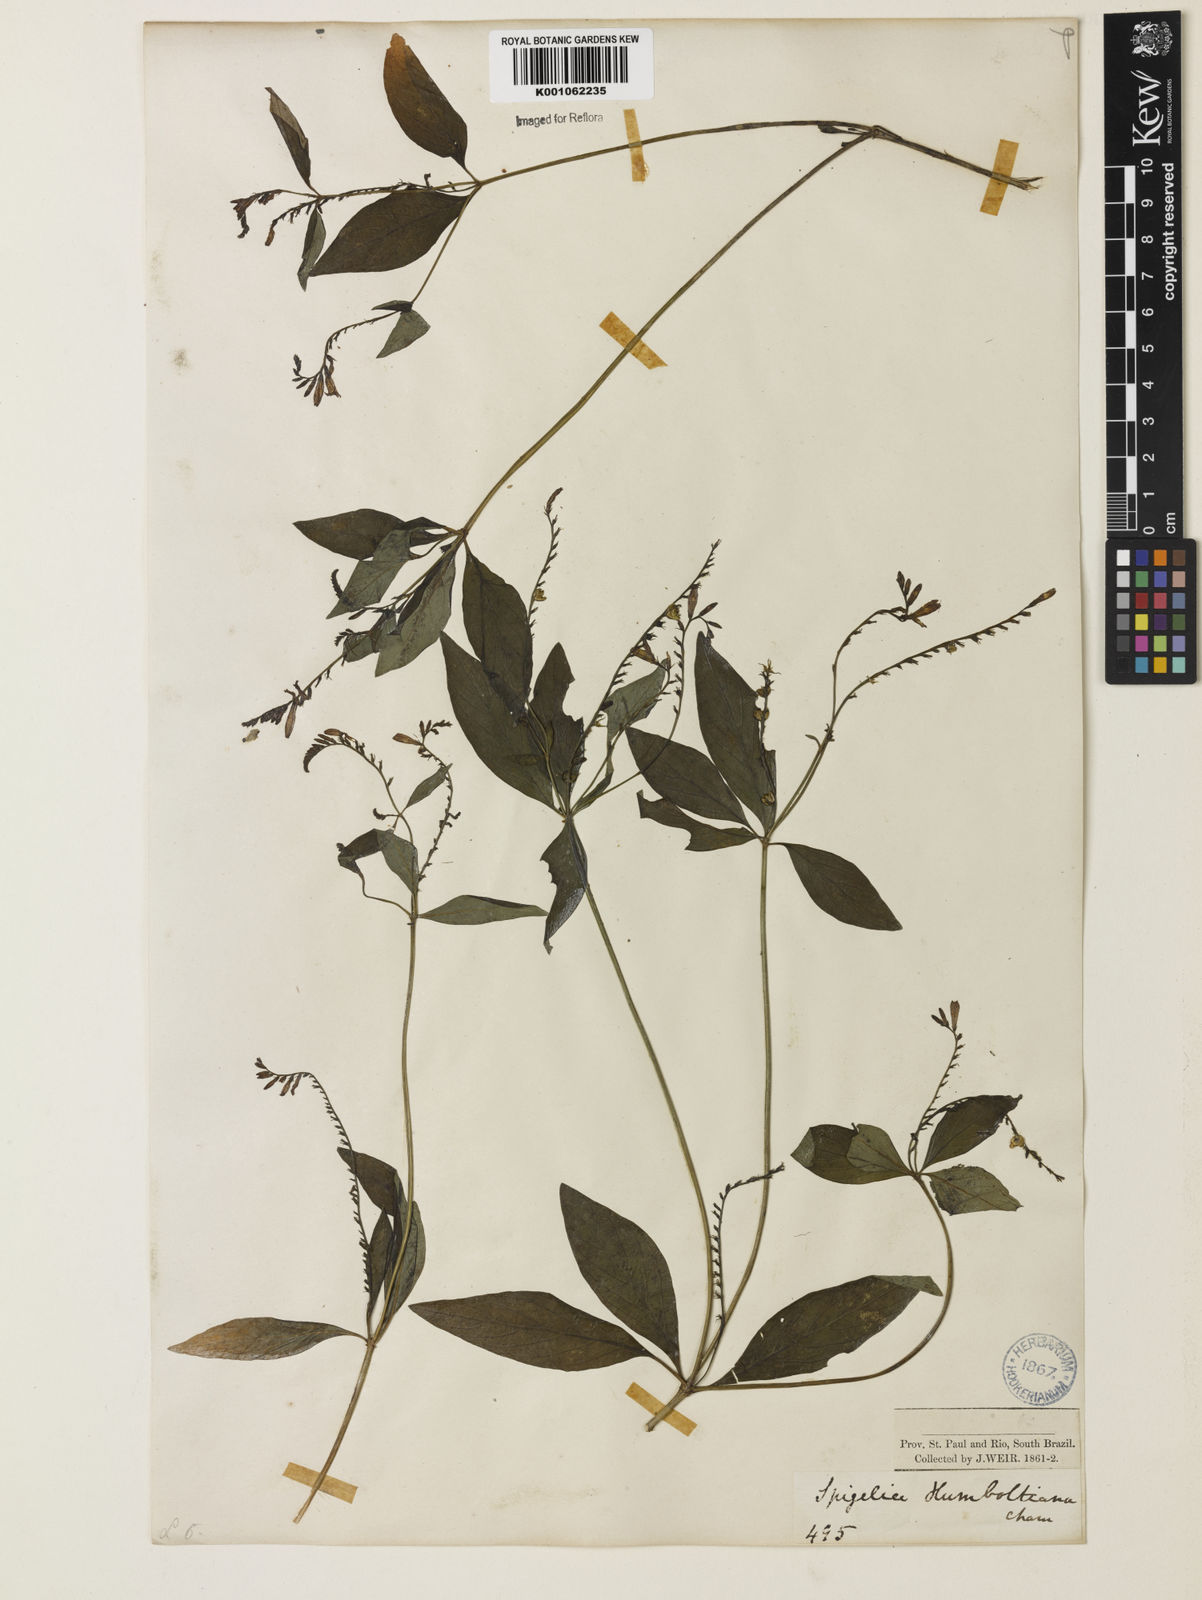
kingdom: Plantae
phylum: Tracheophyta
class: Magnoliopsida
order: Gentianales
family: Loganiaceae
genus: Spigelia
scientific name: Spigelia humboldtiana
